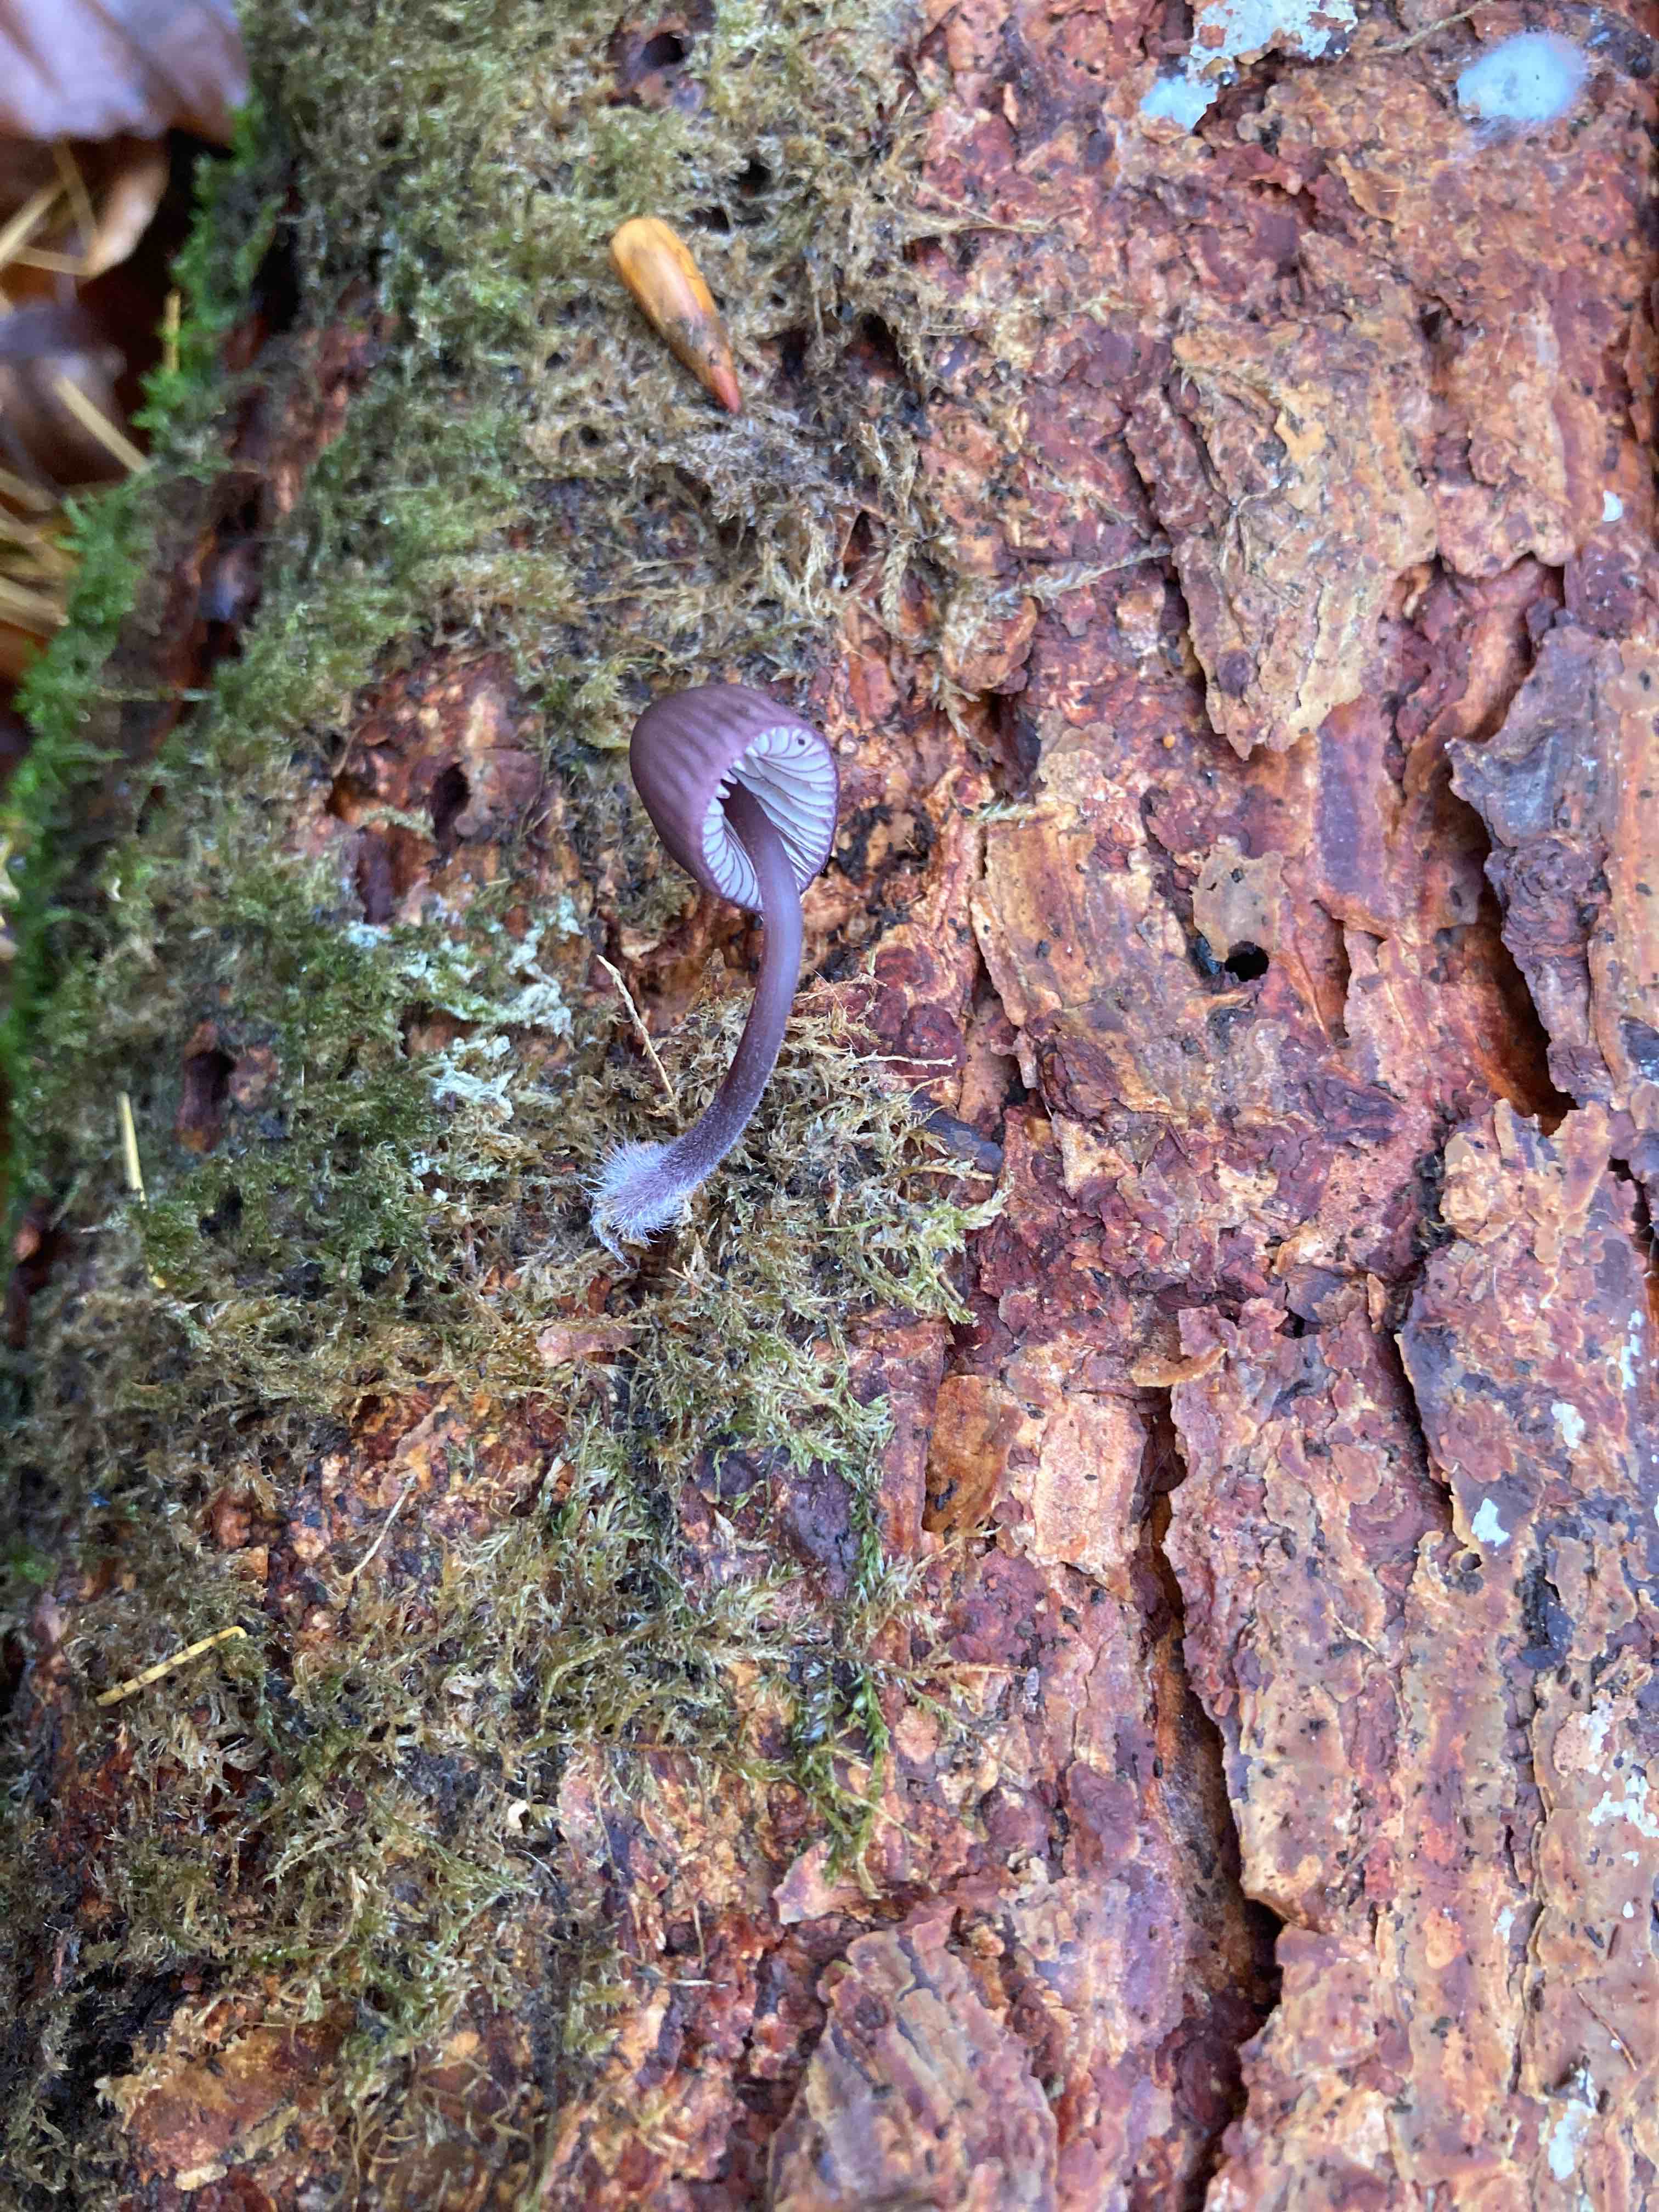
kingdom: Fungi
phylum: Basidiomycota
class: Agaricomycetes
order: Agaricales
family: Mycenaceae
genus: Mycena
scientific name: Mycena purpureofusca
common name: purpur-huesvamp
